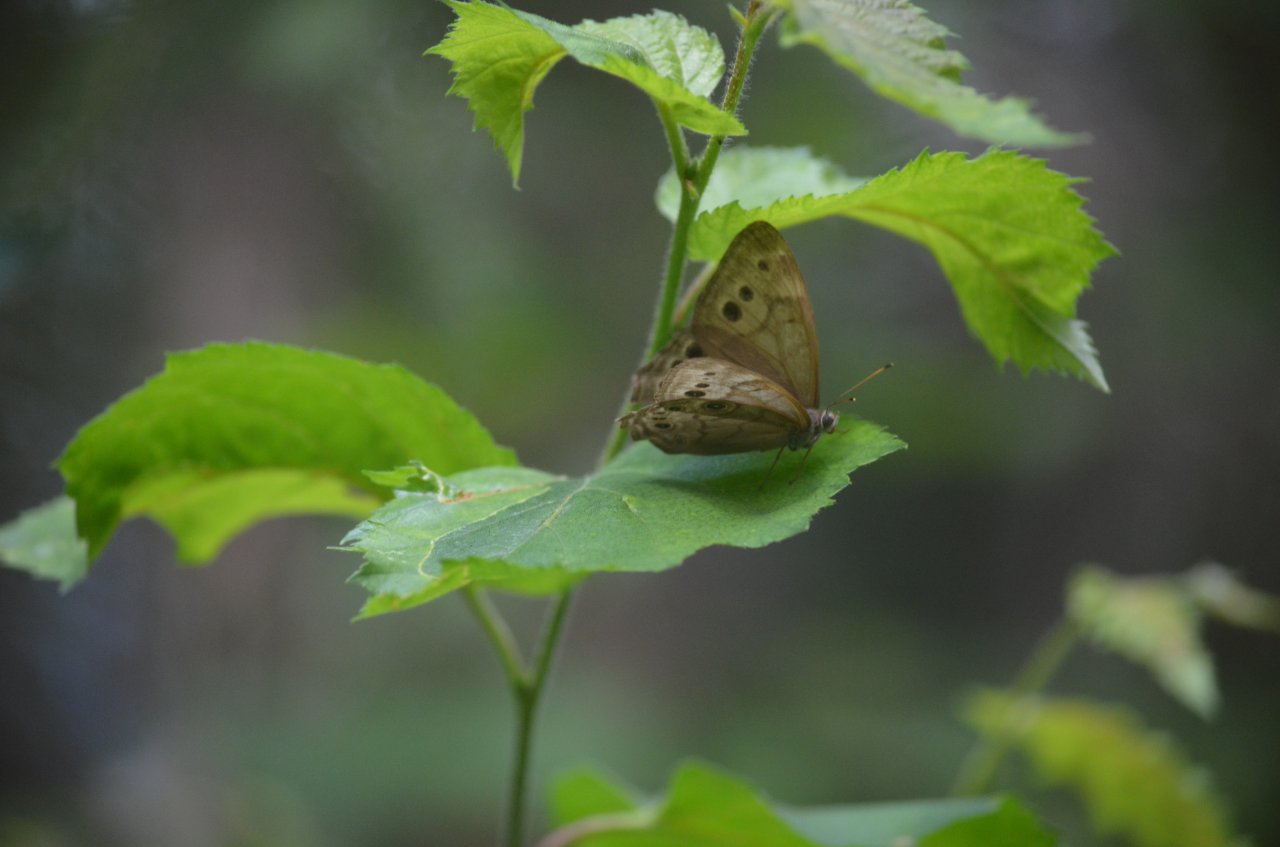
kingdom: Animalia
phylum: Arthropoda
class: Insecta
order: Lepidoptera
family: Nymphalidae
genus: Lethe
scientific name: Lethe anthedon
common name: Northern Pearly-Eye
